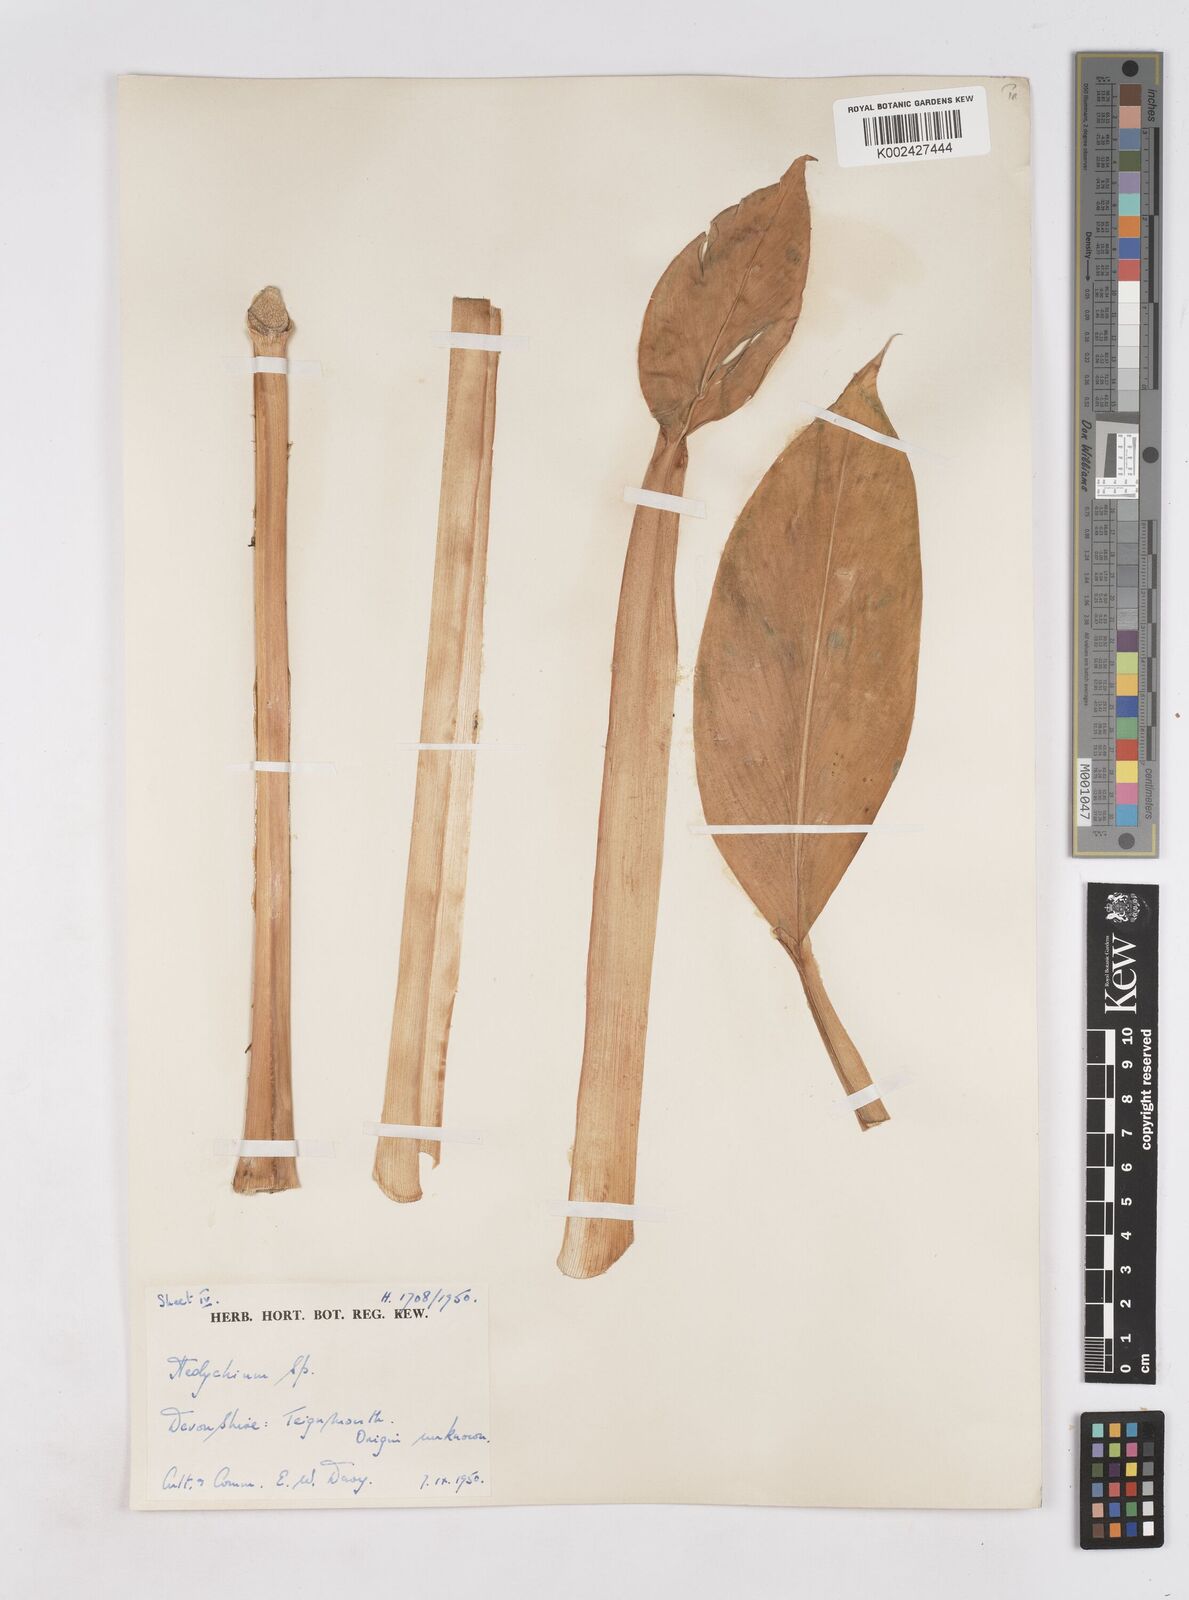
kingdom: Plantae
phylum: Tracheophyta
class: Liliopsida
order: Zingiberales
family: Zingiberaceae
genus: Hedychium
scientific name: Hedychium
